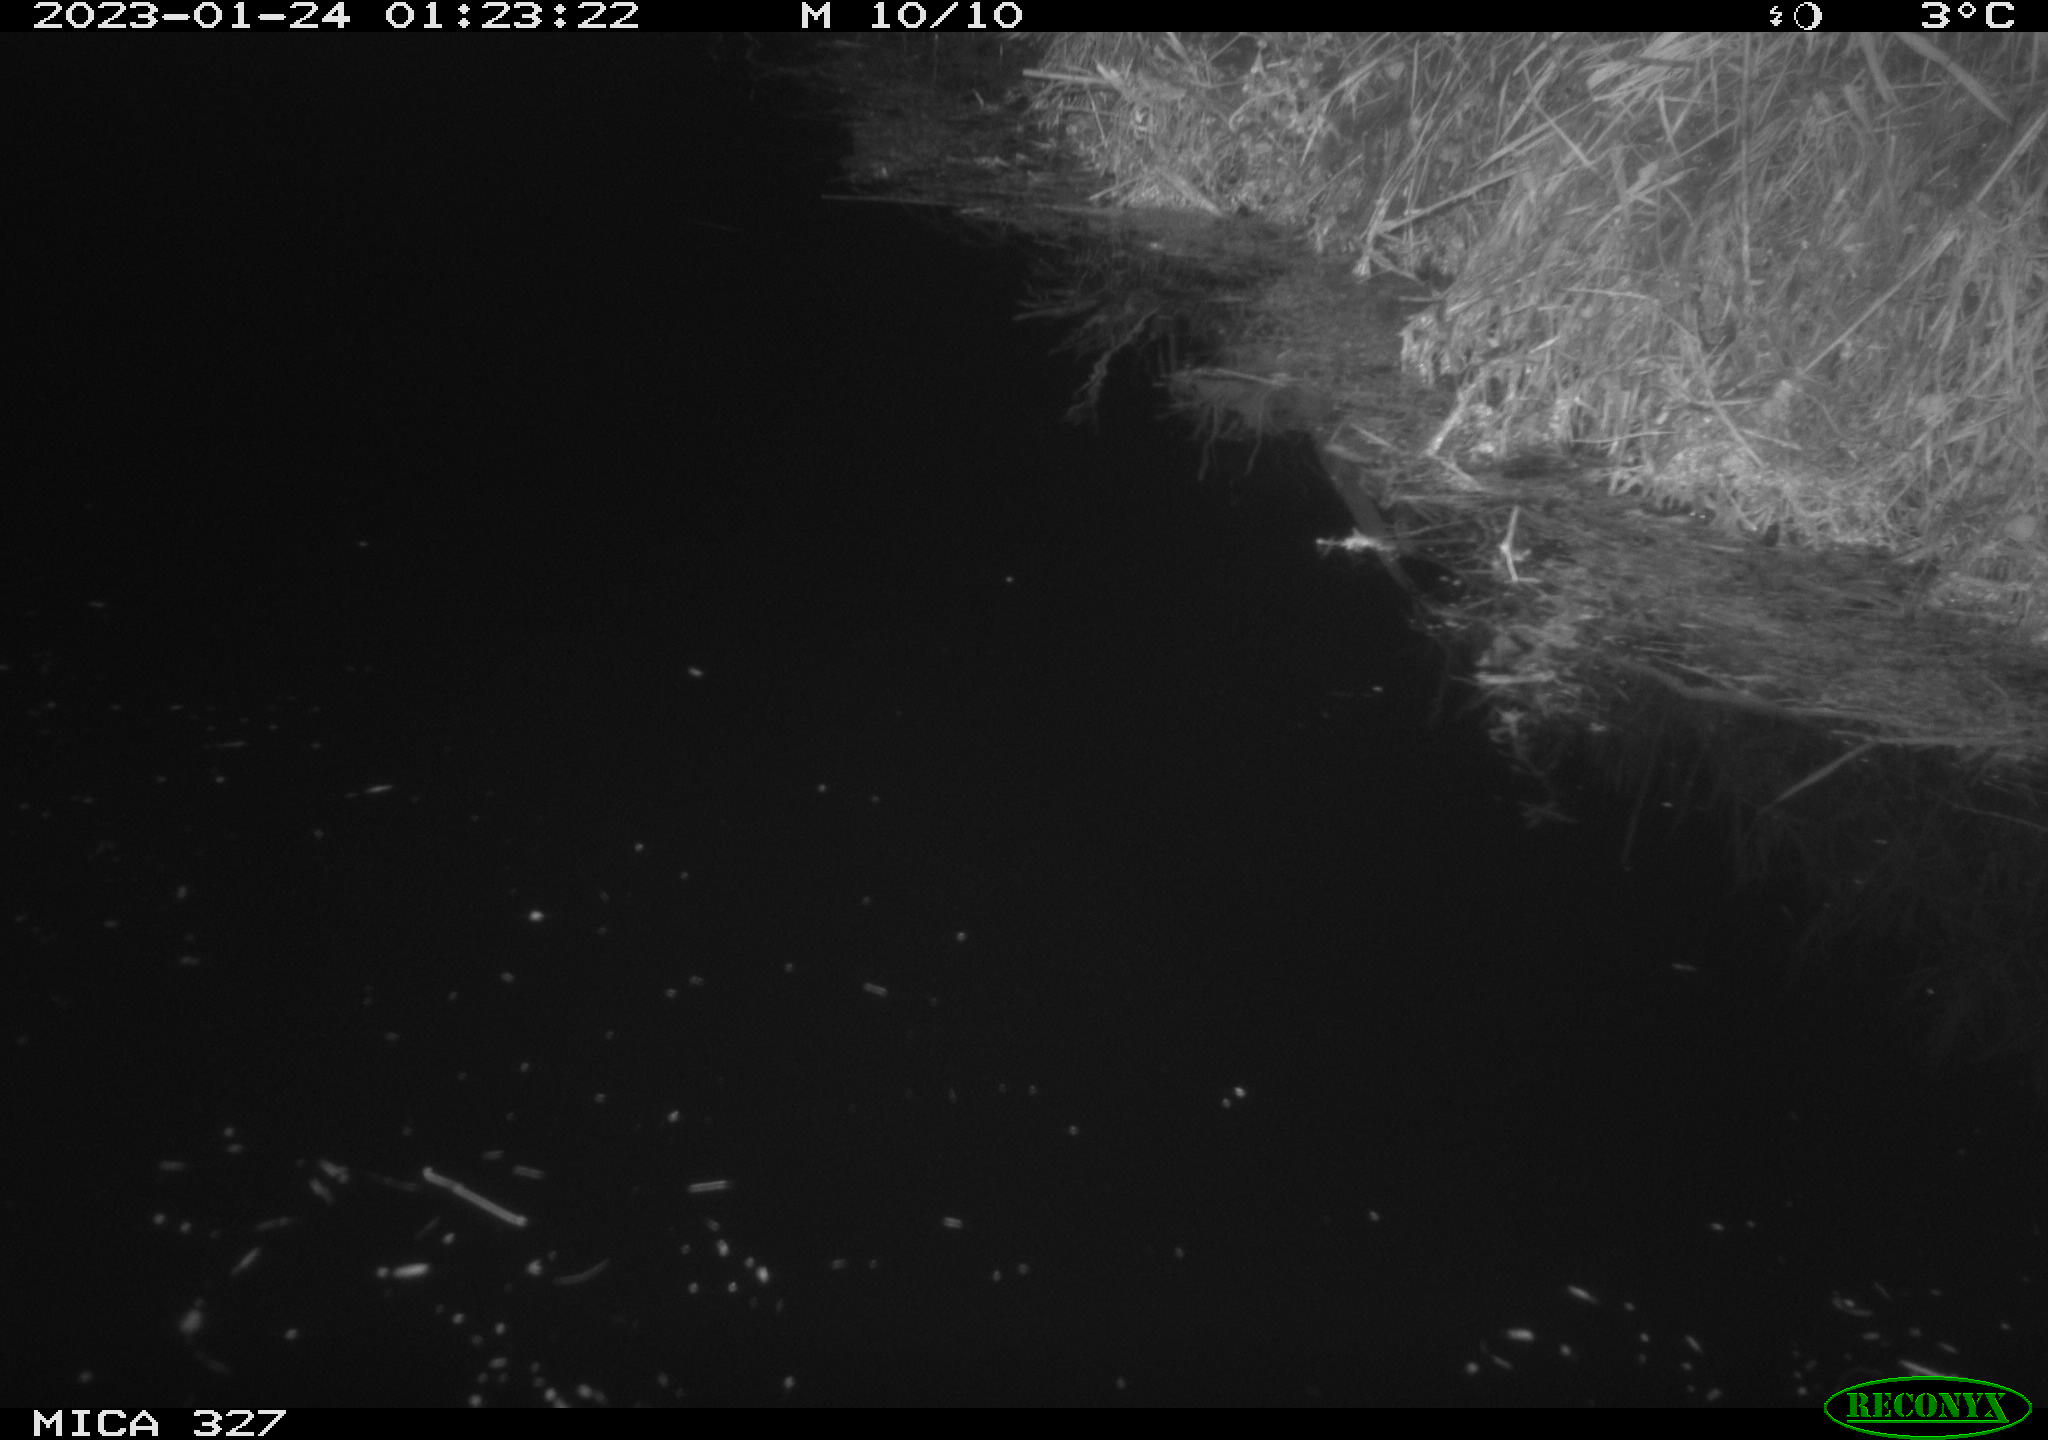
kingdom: Animalia
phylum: Chordata
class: Mammalia
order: Rodentia
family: Cricetidae
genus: Ondatra
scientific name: Ondatra zibethicus
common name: Muskrat
